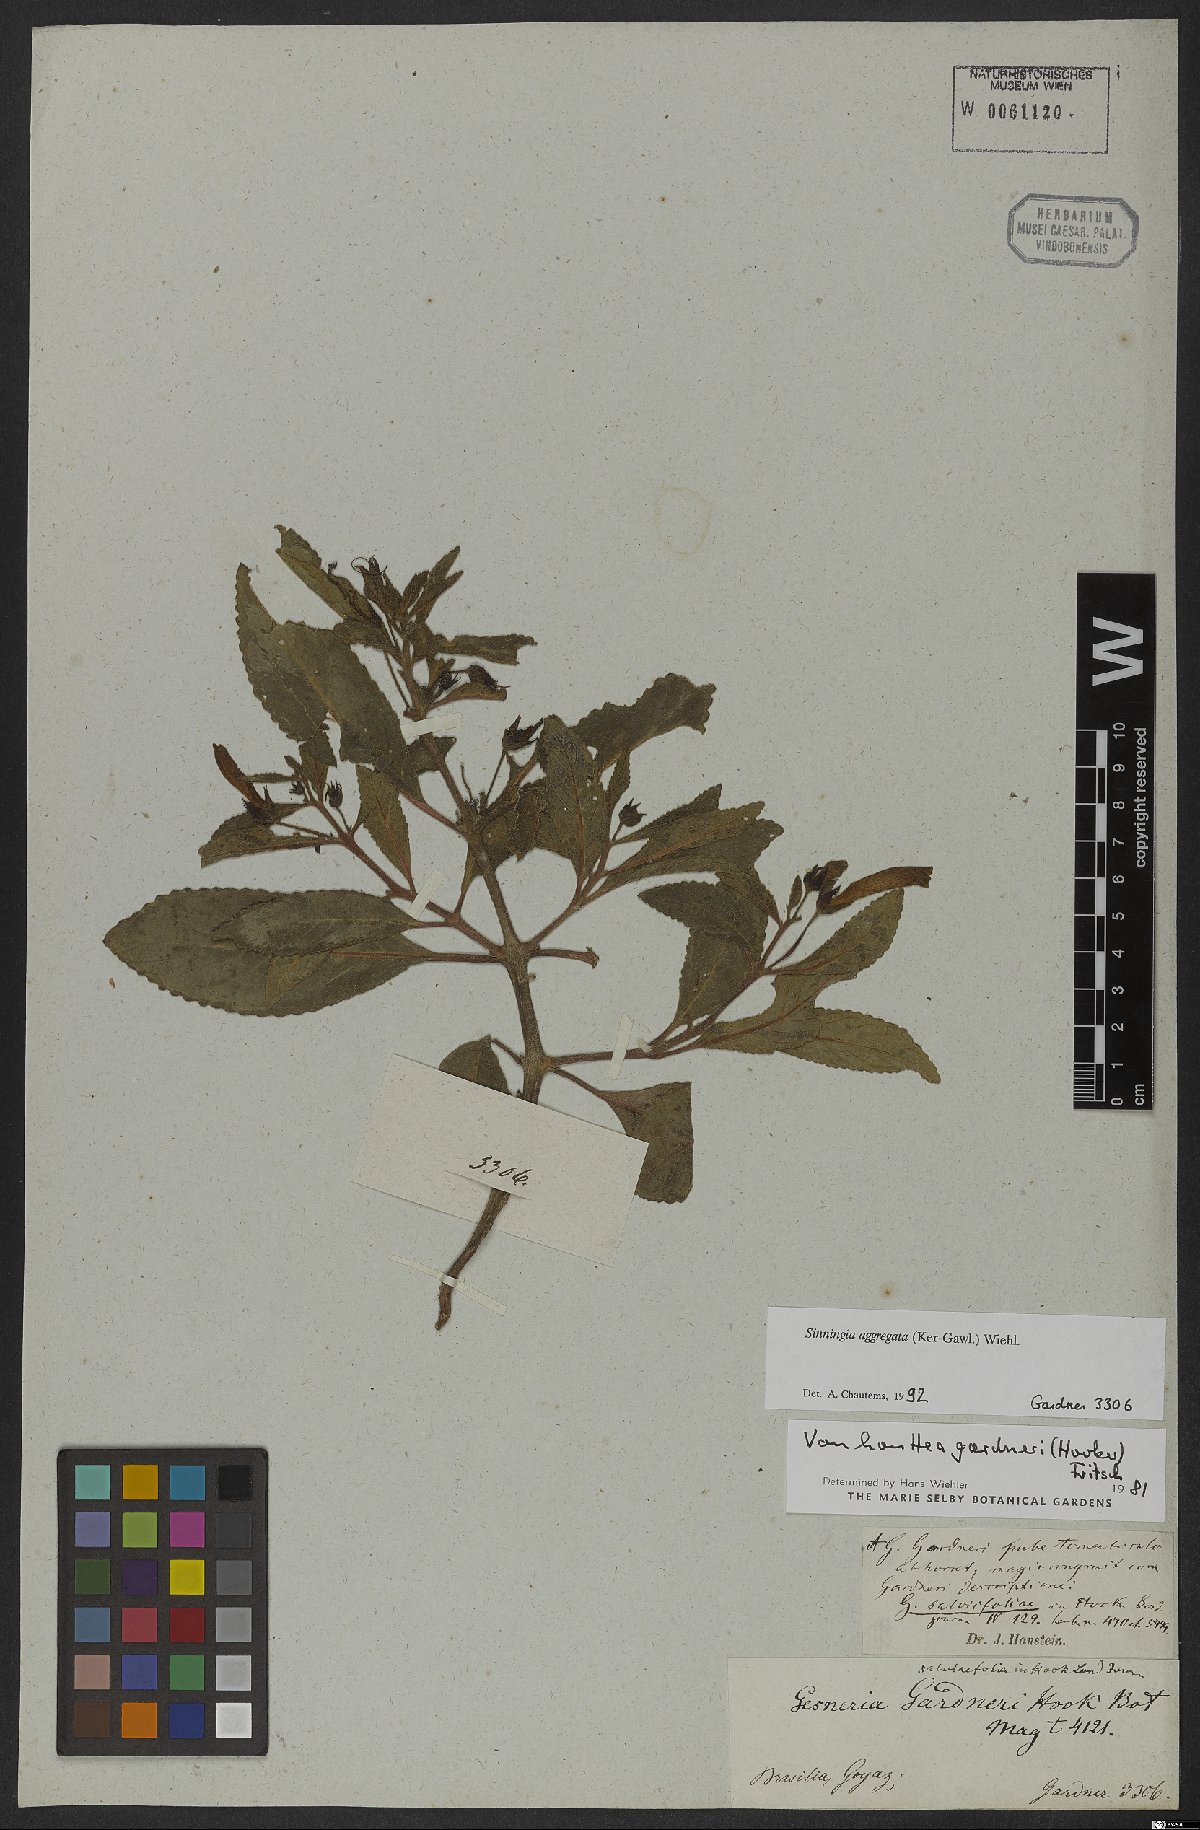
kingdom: Plantae
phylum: Tracheophyta
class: Magnoliopsida
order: Lamiales
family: Gesneriaceae
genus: Sinningia
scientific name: Sinningia aggregata
